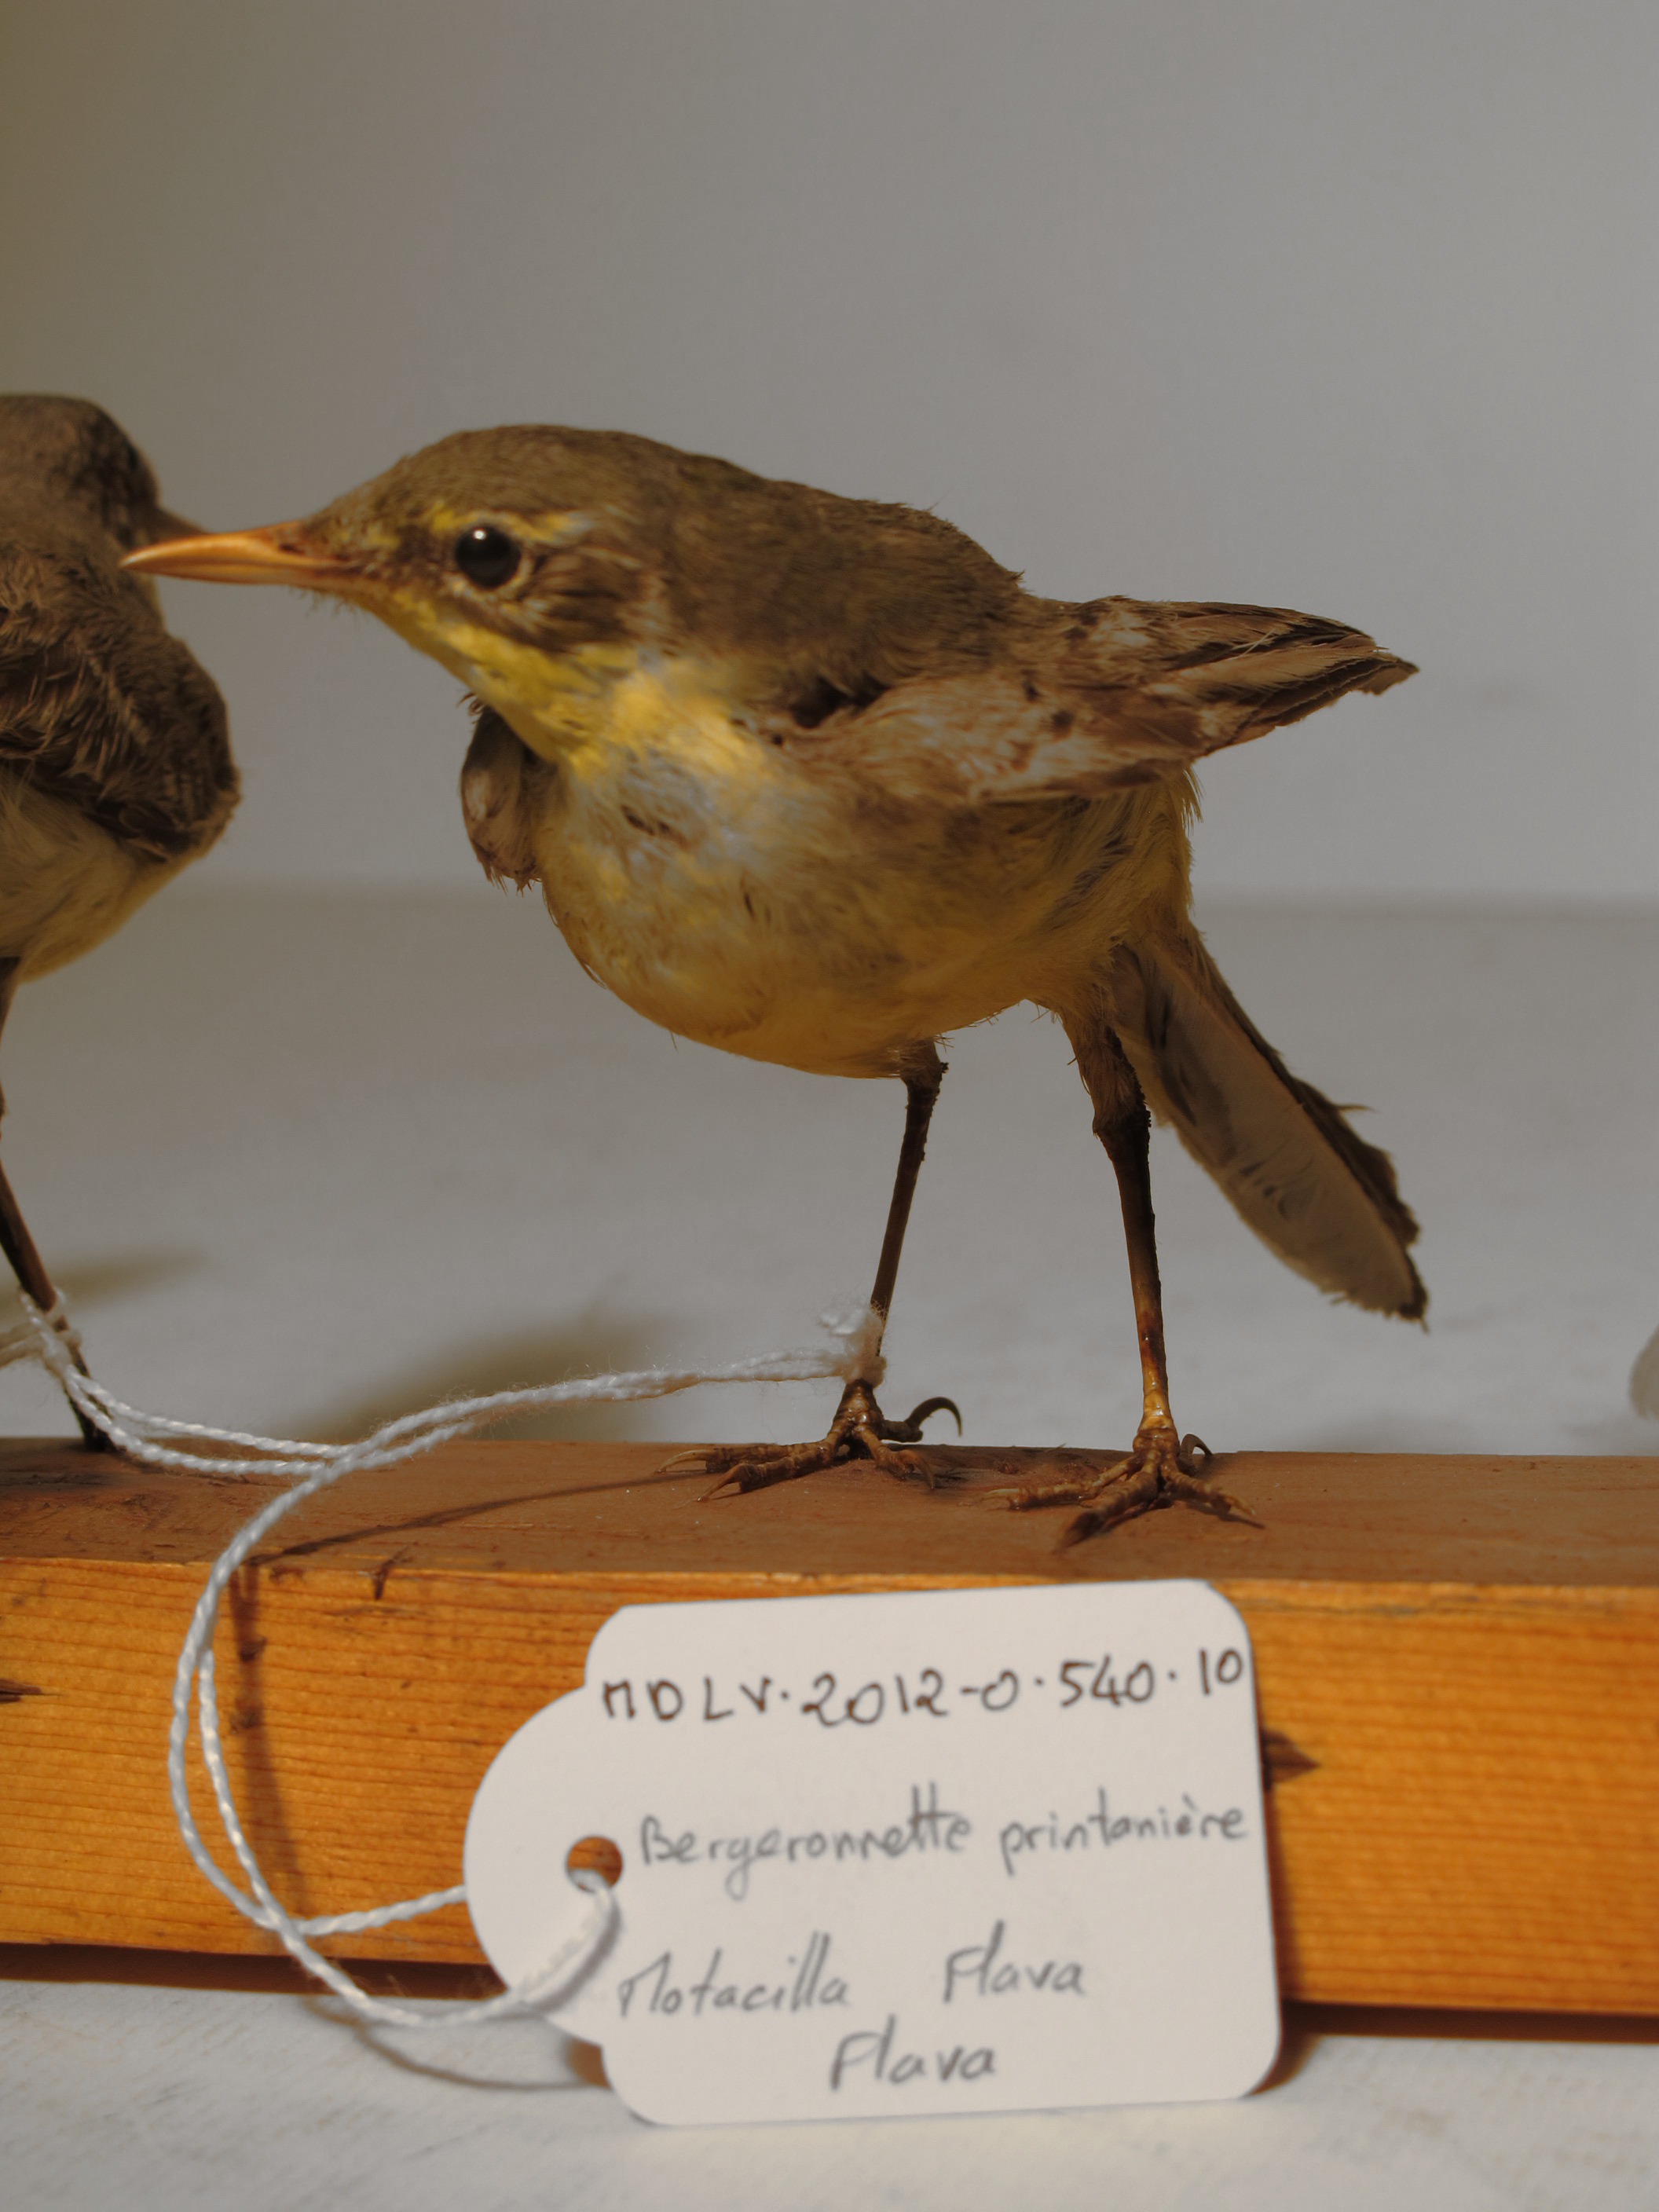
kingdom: Animalia
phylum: Chordata
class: Aves
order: Passeriformes
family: Motacillidae
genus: Motacilla
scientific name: Motacilla flava
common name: Yellow Wagtail
